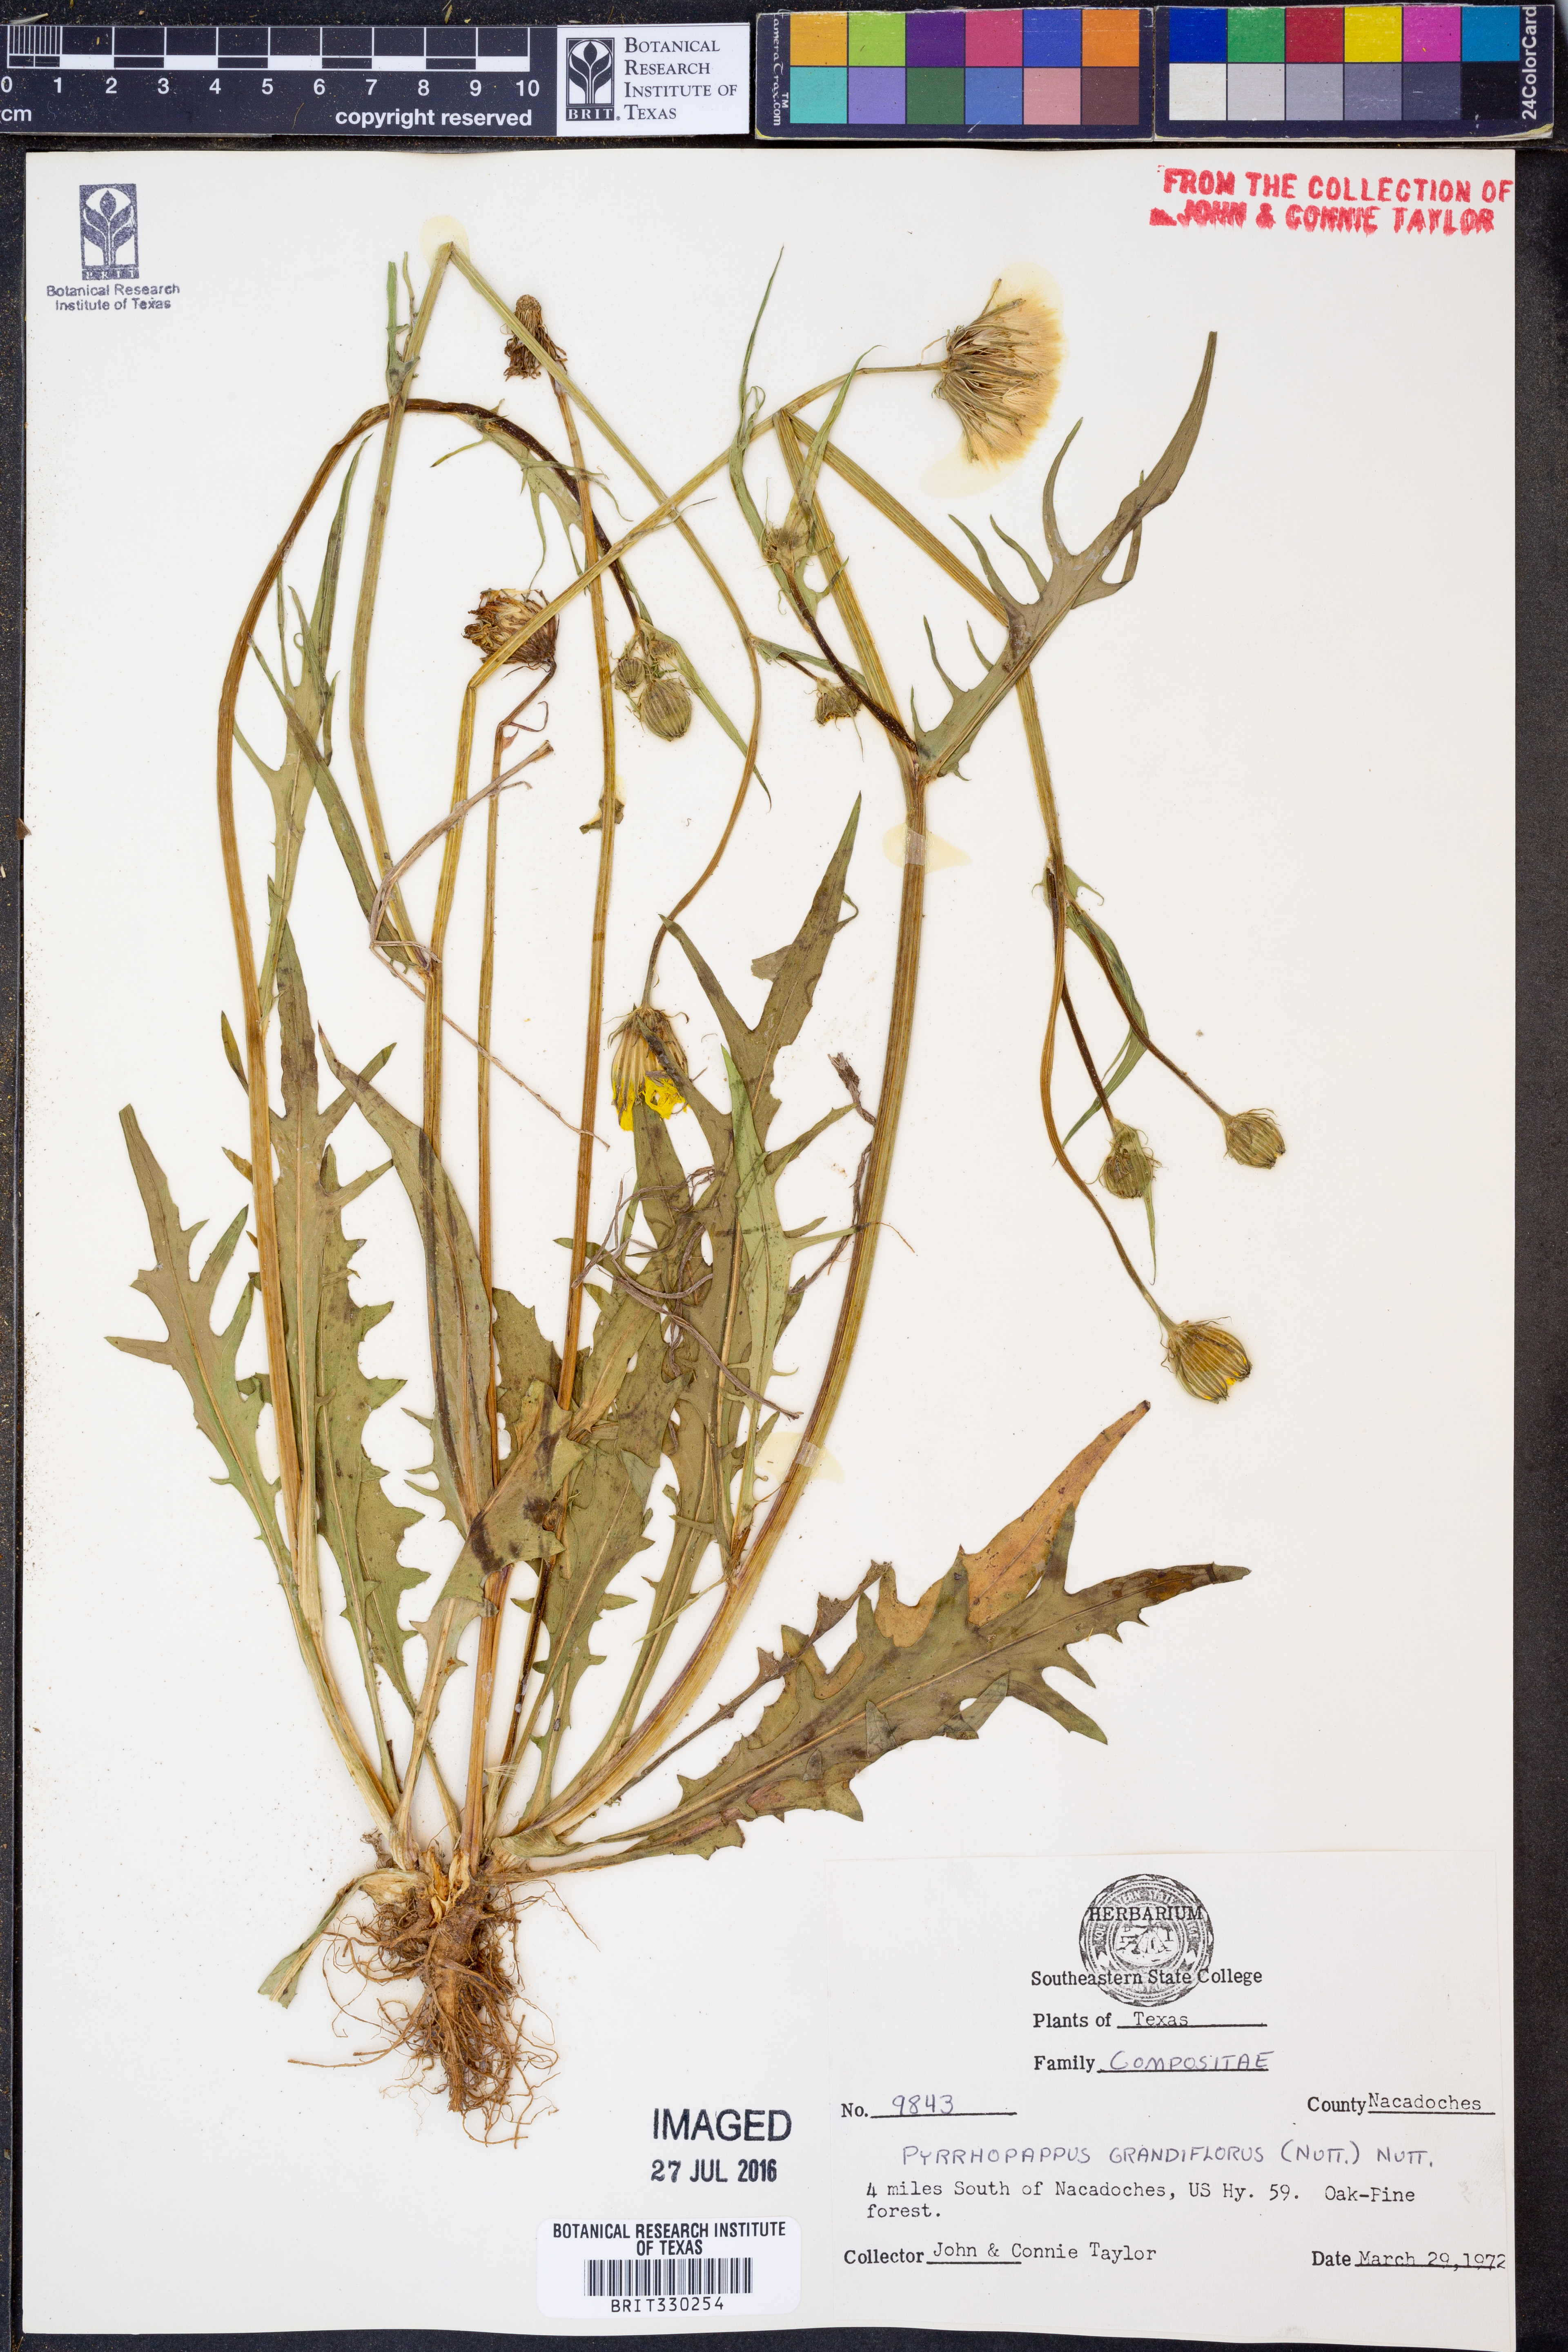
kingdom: Plantae
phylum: Tracheophyta
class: Magnoliopsida
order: Asterales
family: Asteraceae
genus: Pyrrhopappus
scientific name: Pyrrhopappus grandiflorus
